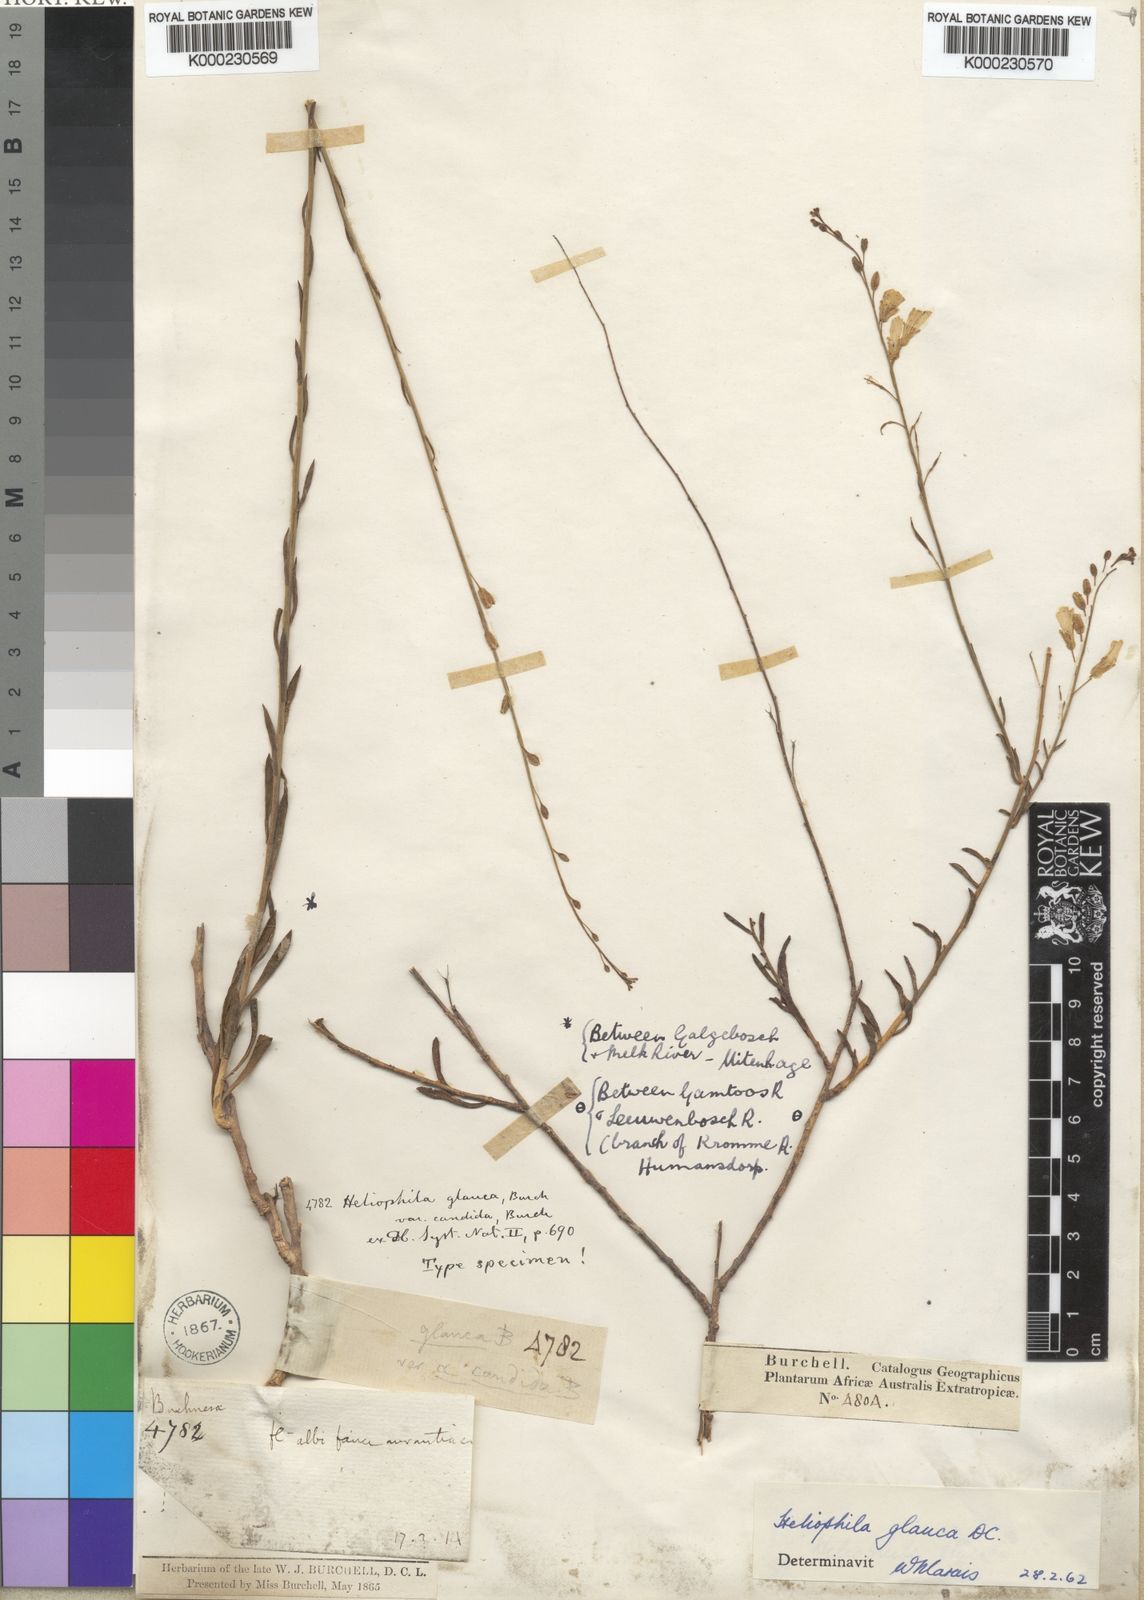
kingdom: Plantae
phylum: Tracheophyta
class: Magnoliopsida
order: Brassicales
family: Brassicaceae
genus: Heliophila
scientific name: Heliophila glauca
